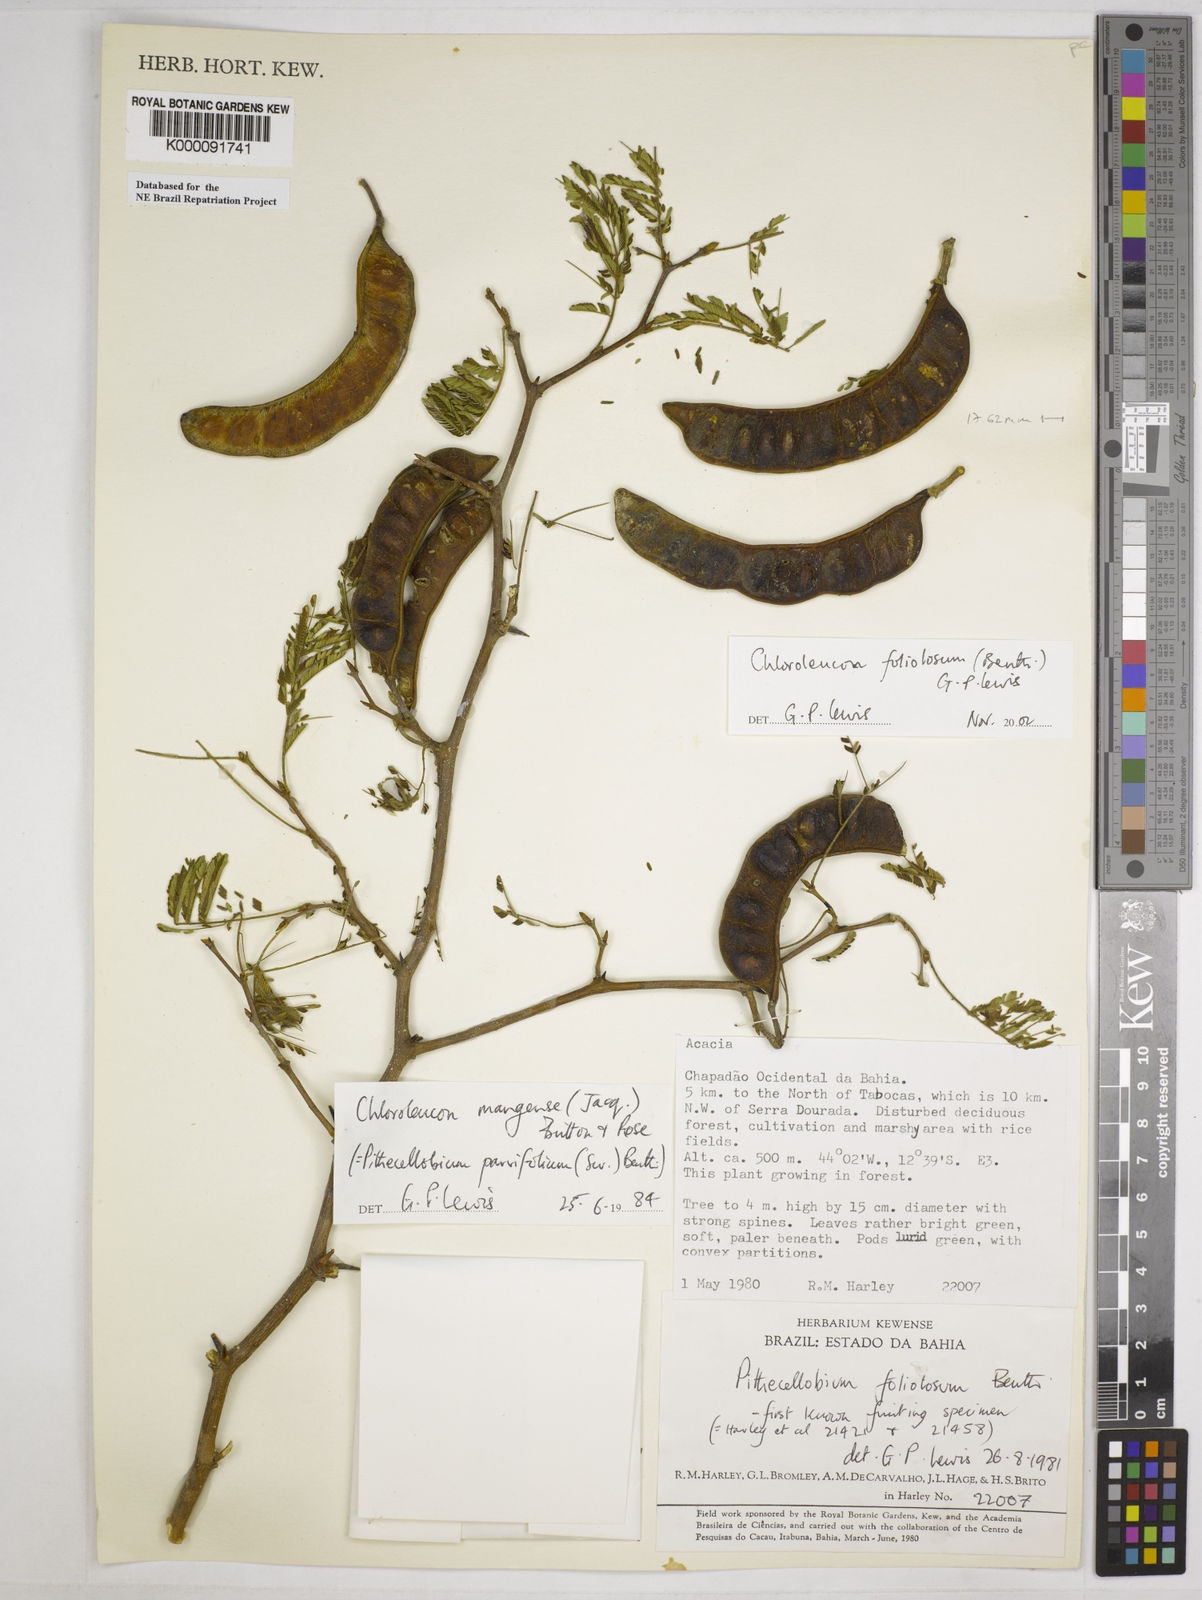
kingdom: Plantae
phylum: Tracheophyta
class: Magnoliopsida
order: Fabales
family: Fabaceae
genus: Chloroleucon
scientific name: Chloroleucon foliolosum
